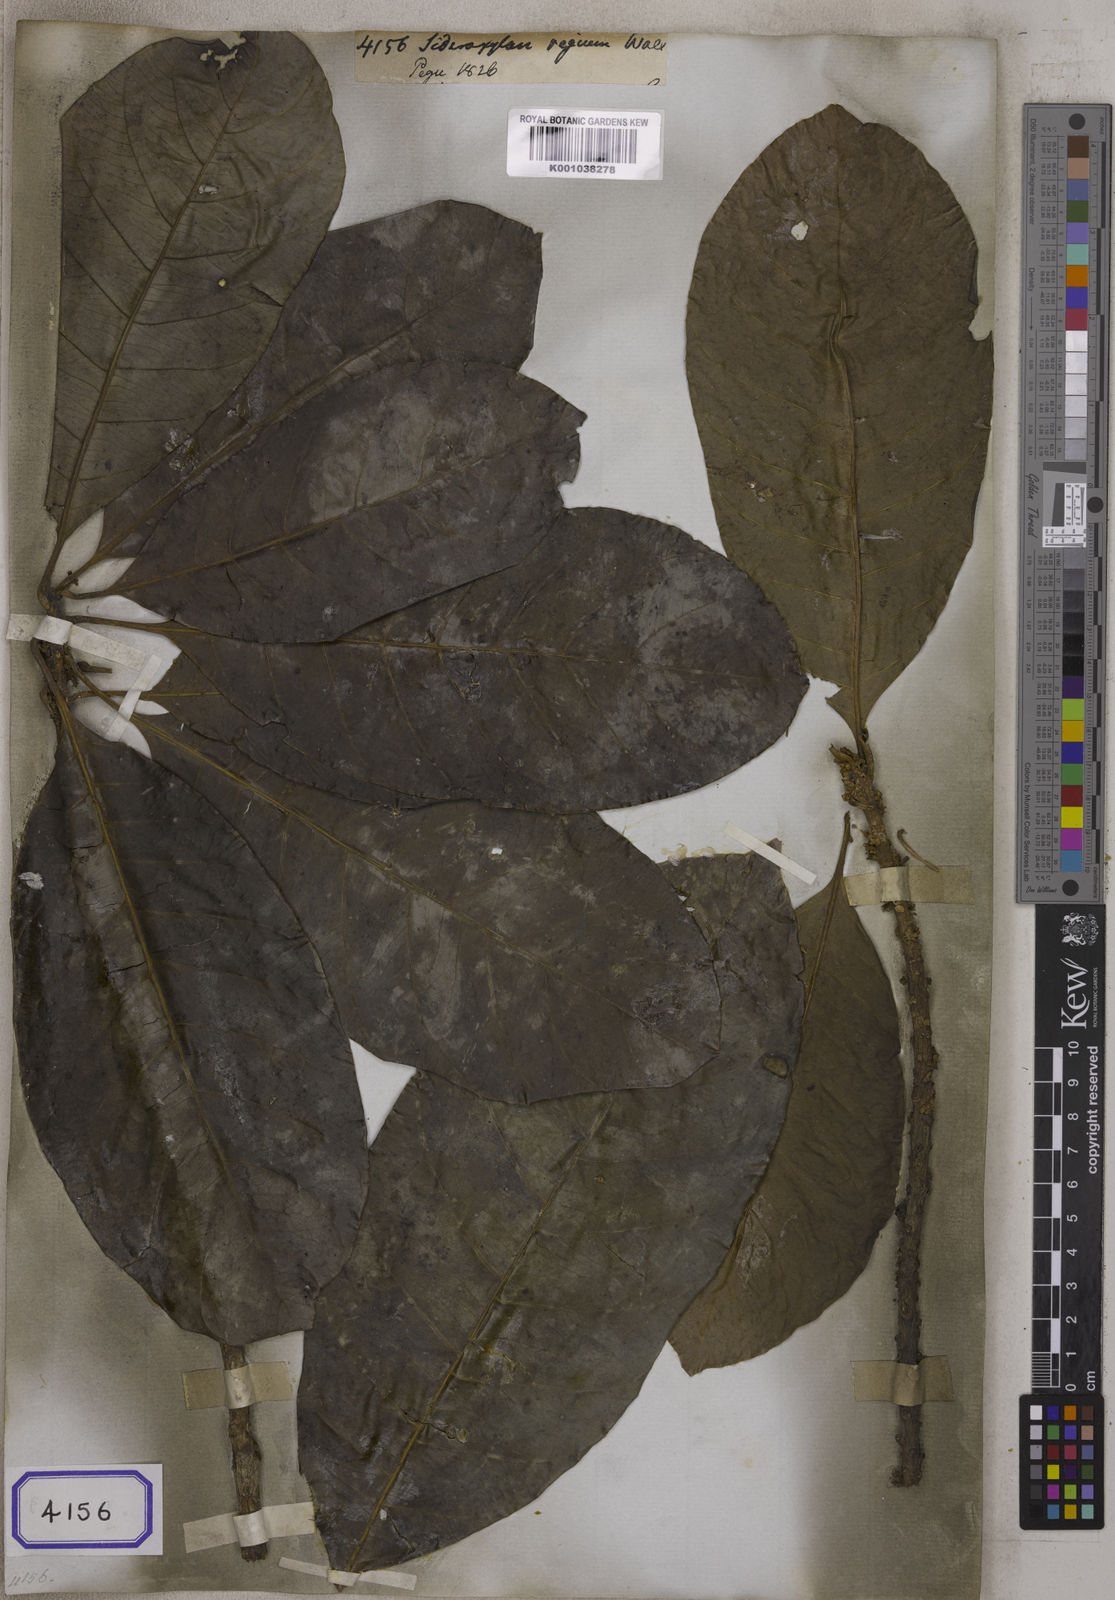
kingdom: Plantae
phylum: Tracheophyta
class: Magnoliopsida
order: Ericales
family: Sapotaceae
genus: Sideroxylon
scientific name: Sideroxylon
